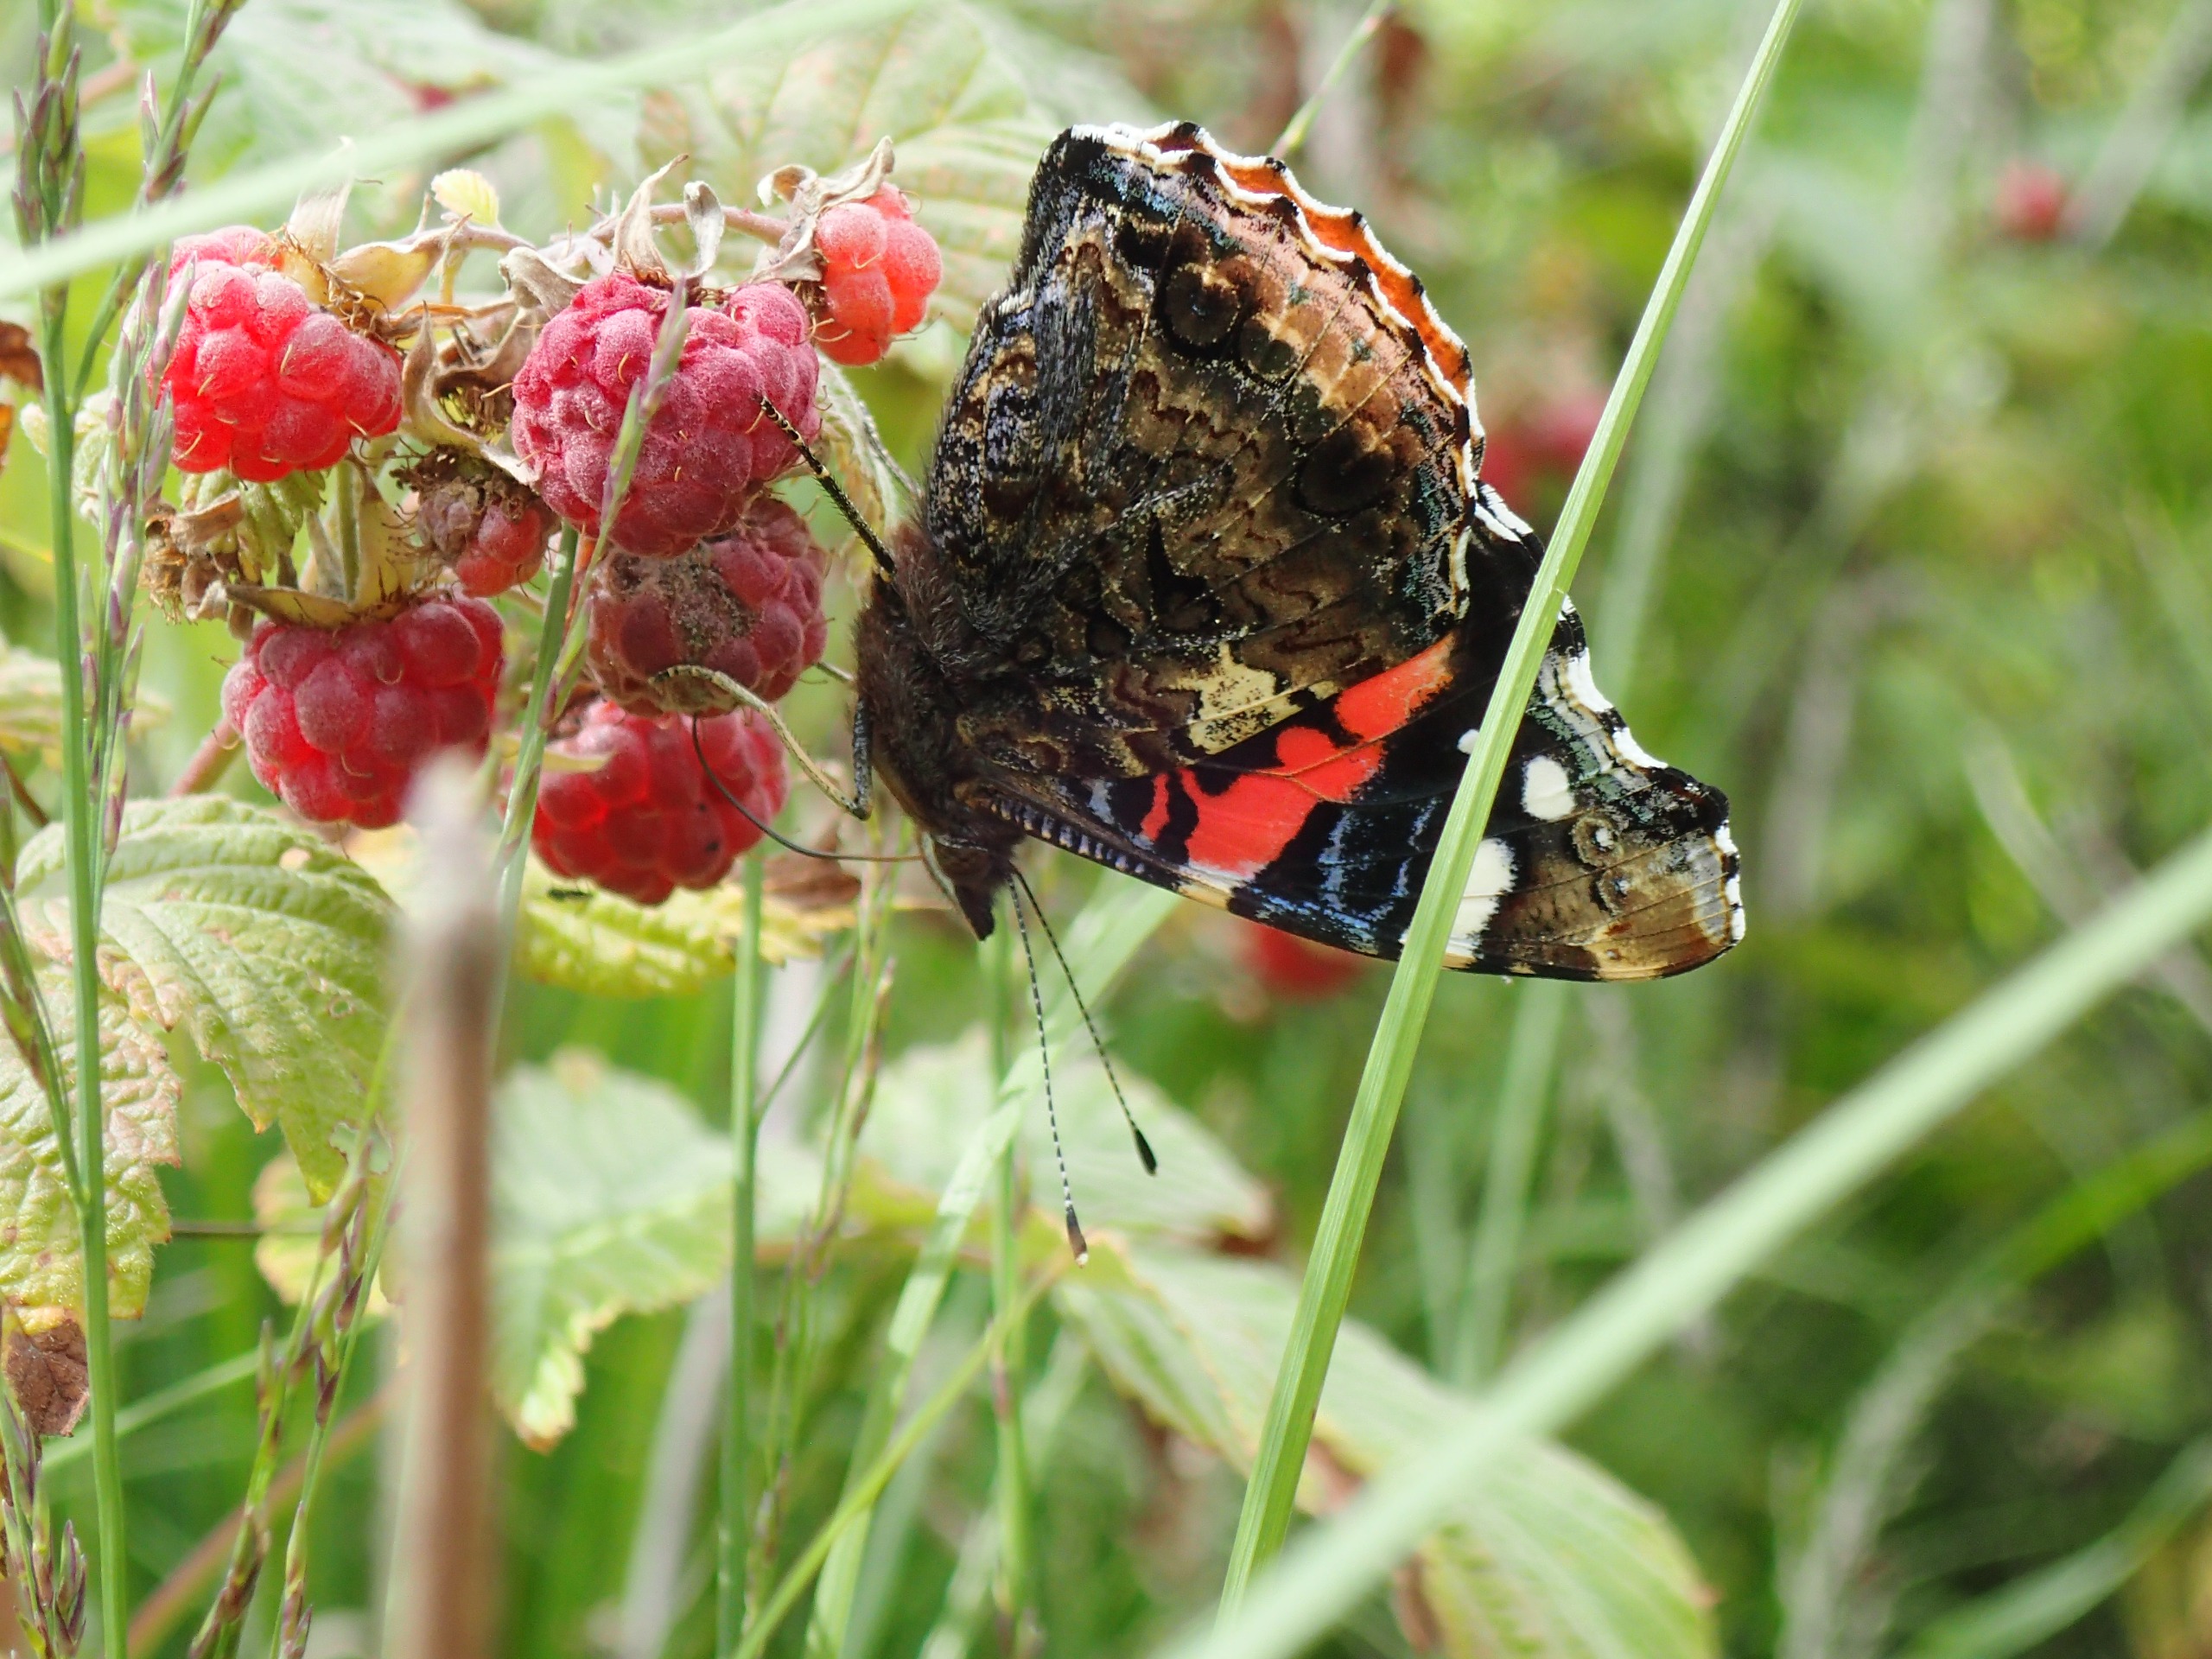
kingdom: Animalia
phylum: Arthropoda
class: Insecta
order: Lepidoptera
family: Nymphalidae
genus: Vanessa
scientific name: Vanessa atalanta
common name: Admiral
